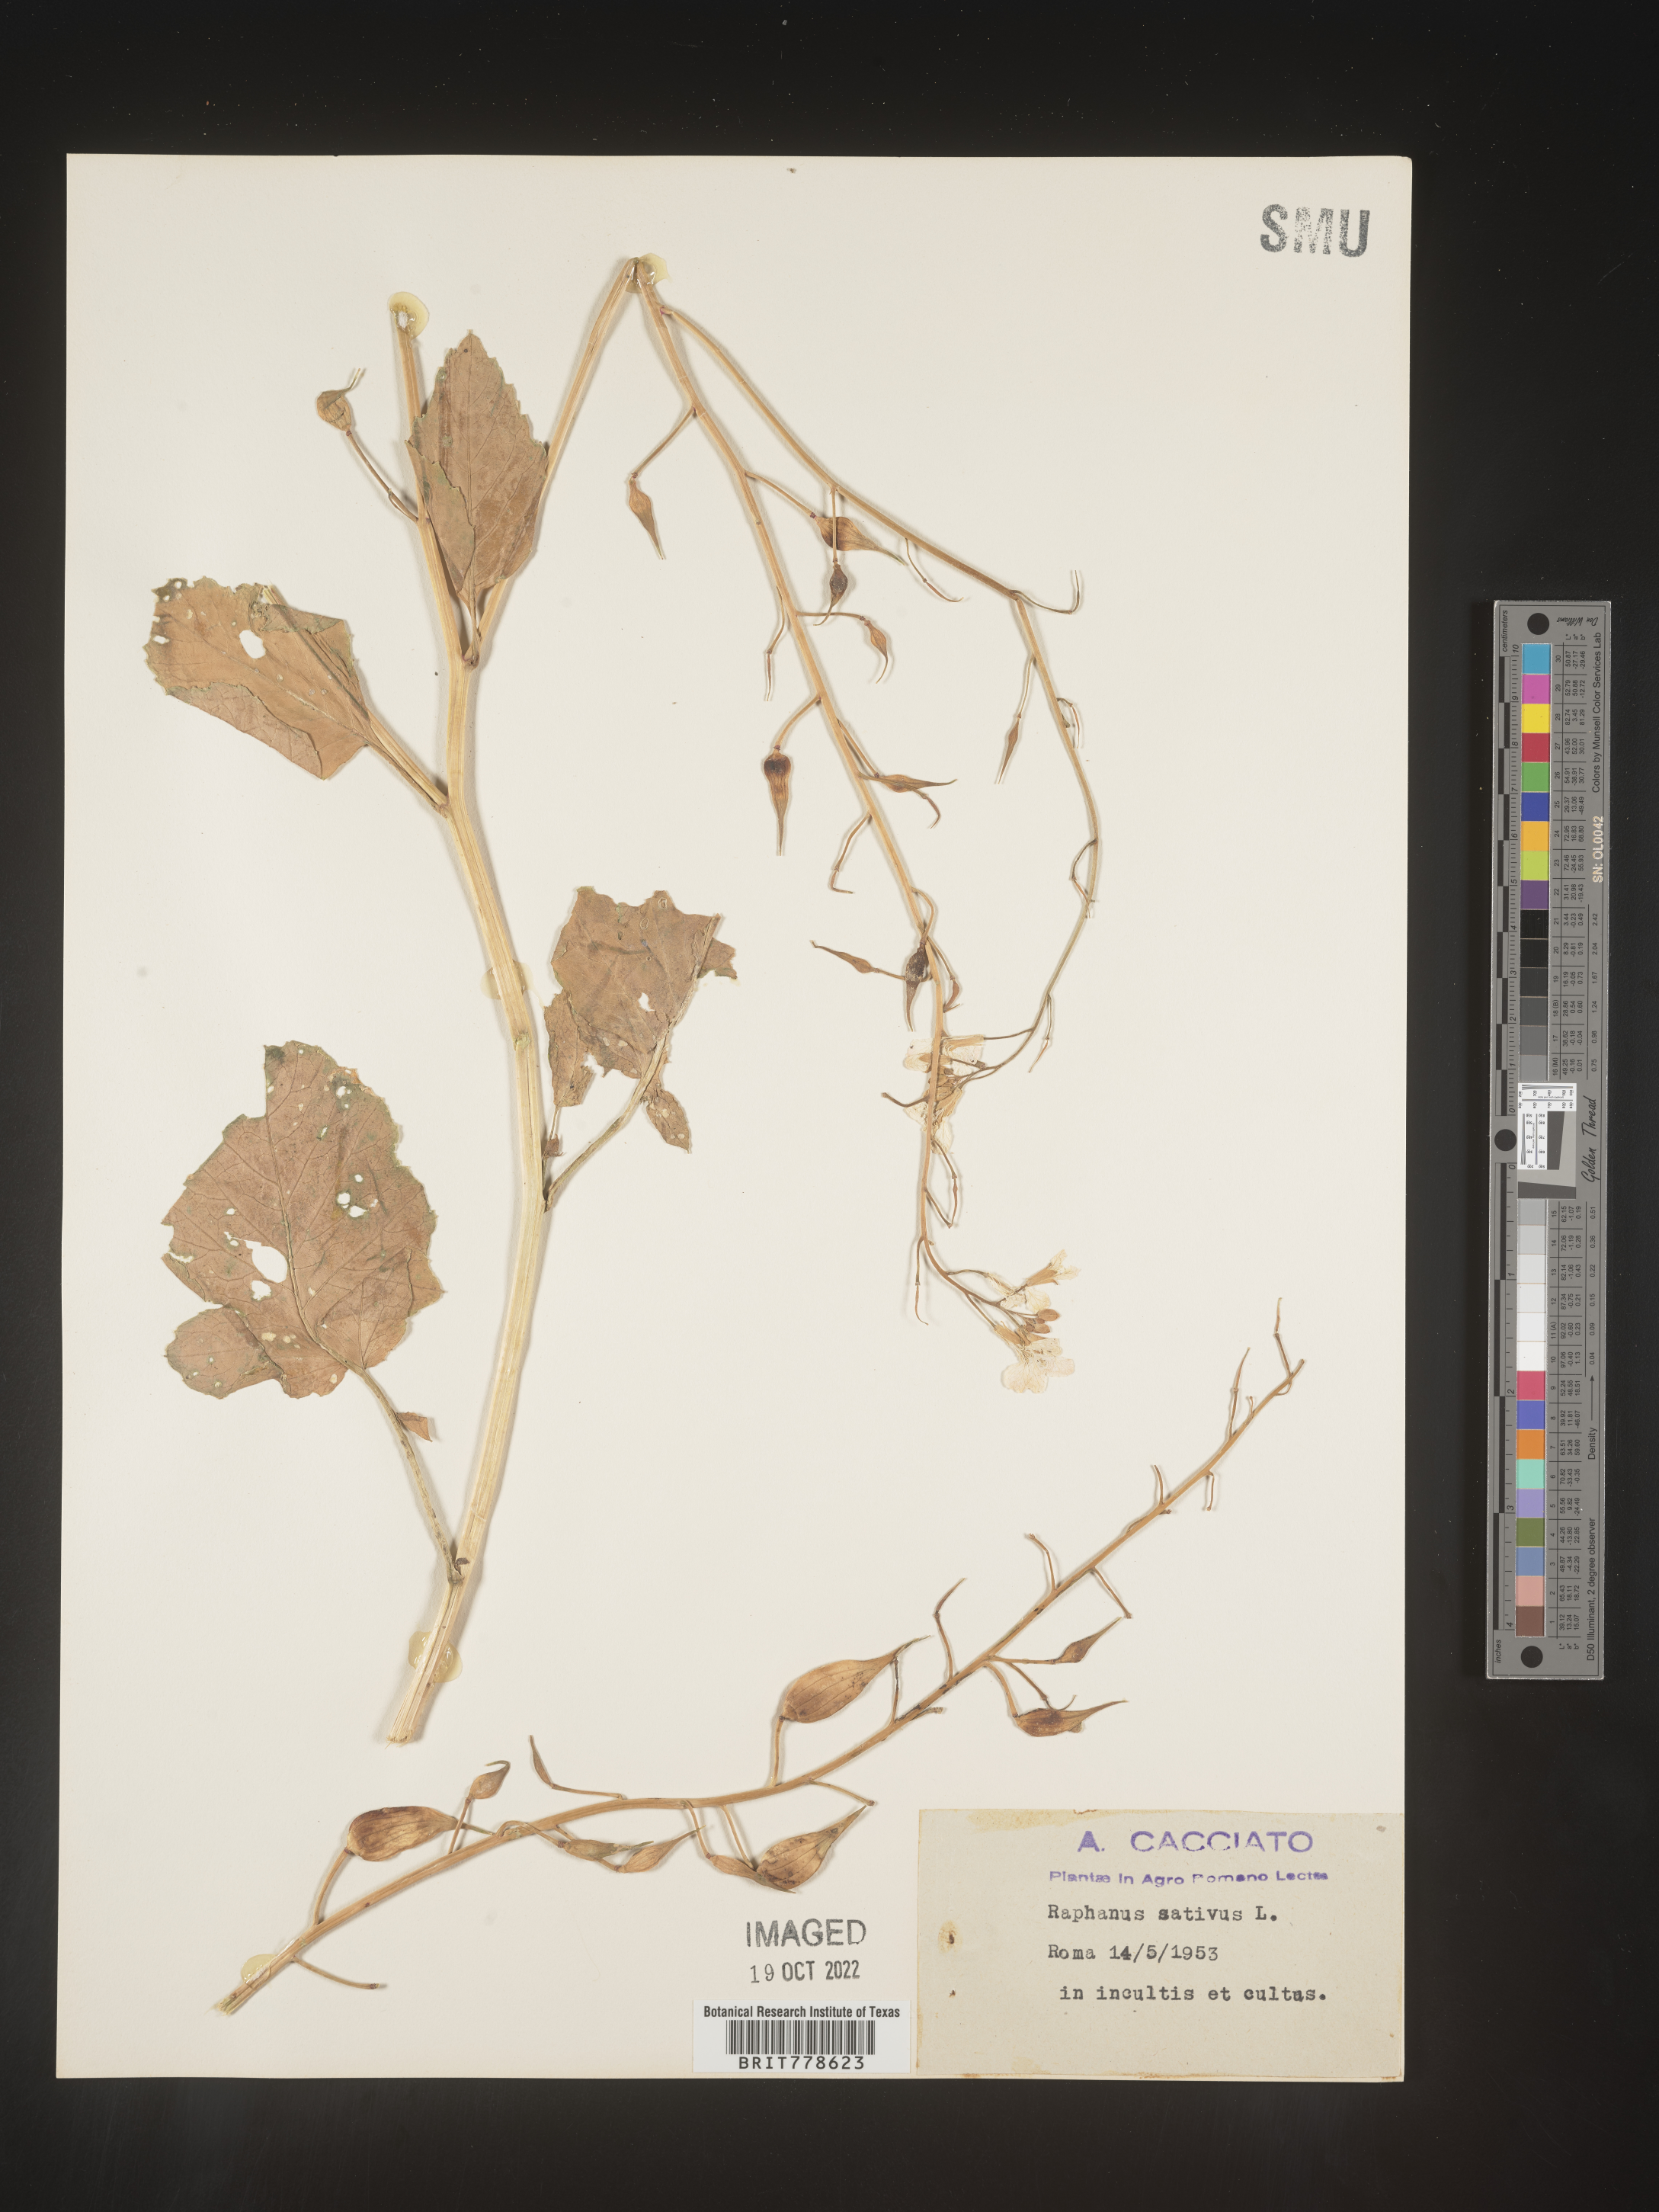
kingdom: Plantae
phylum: Tracheophyta
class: Magnoliopsida
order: Brassicales
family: Brassicaceae
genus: Raphanus
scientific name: Raphanus sativus
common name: Cultivated radish
